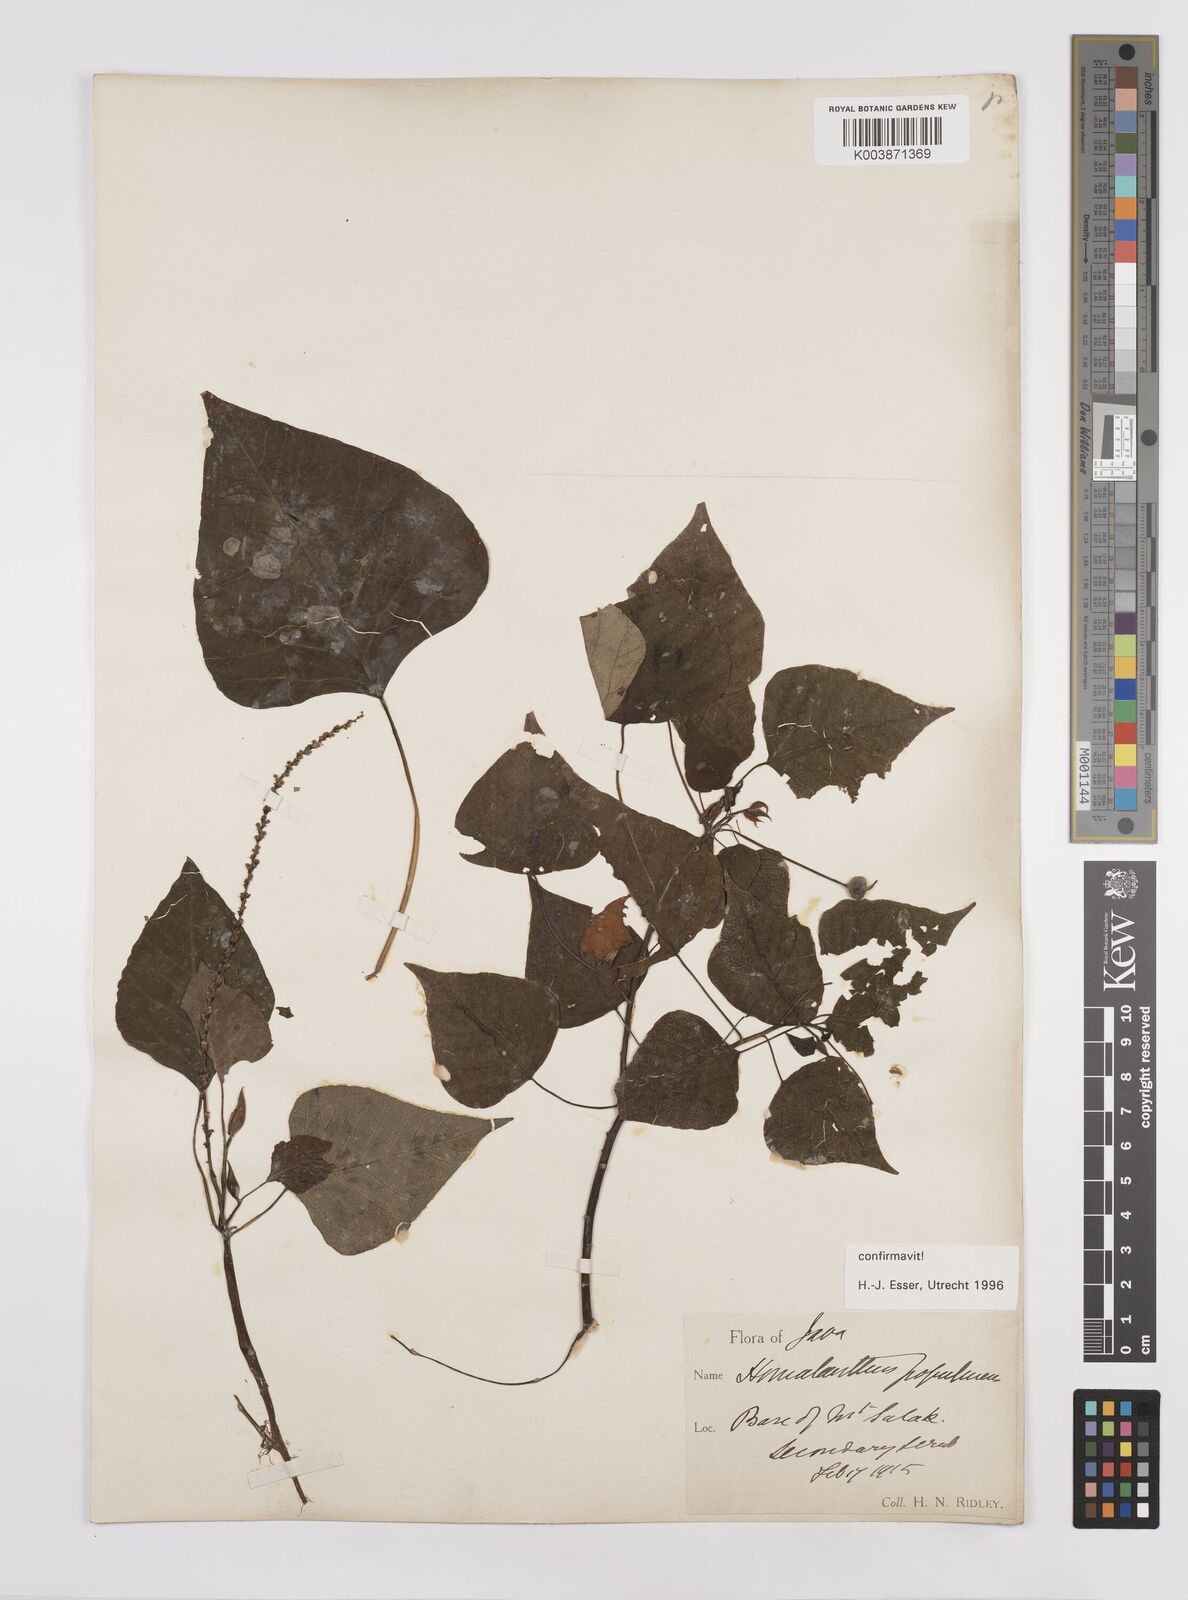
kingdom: Plantae
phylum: Tracheophyta
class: Magnoliopsida
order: Malpighiales
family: Euphorbiaceae
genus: Homalanthus
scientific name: Homalanthus populneus
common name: Spurge
